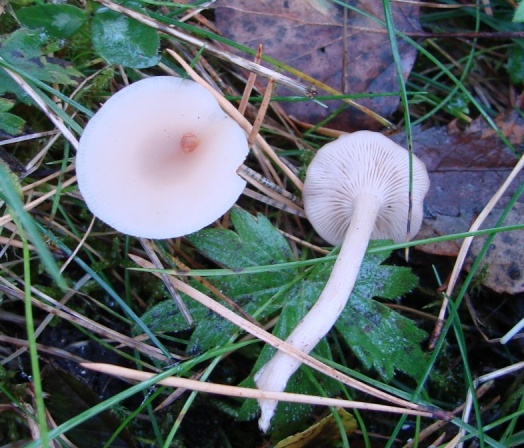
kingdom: Fungi
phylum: Basidiomycota
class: Agaricomycetes
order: Agaricales
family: Tricholomataceae
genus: Clitocybe
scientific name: Clitocybe fragrans
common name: vellugtende tragthat
